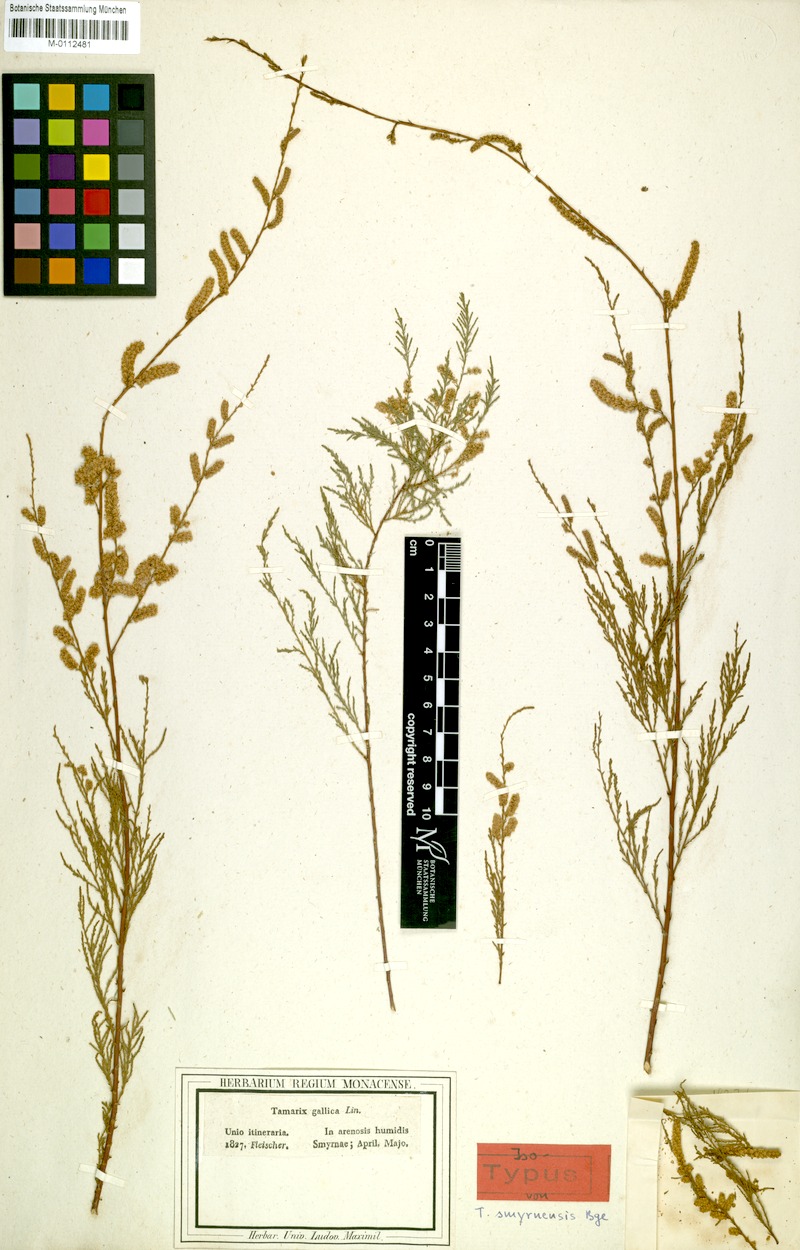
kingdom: Plantae
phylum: Tracheophyta
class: Magnoliopsida
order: Caryophyllales
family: Tamaricaceae
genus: Tamarix
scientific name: Tamarix smyrnensis
